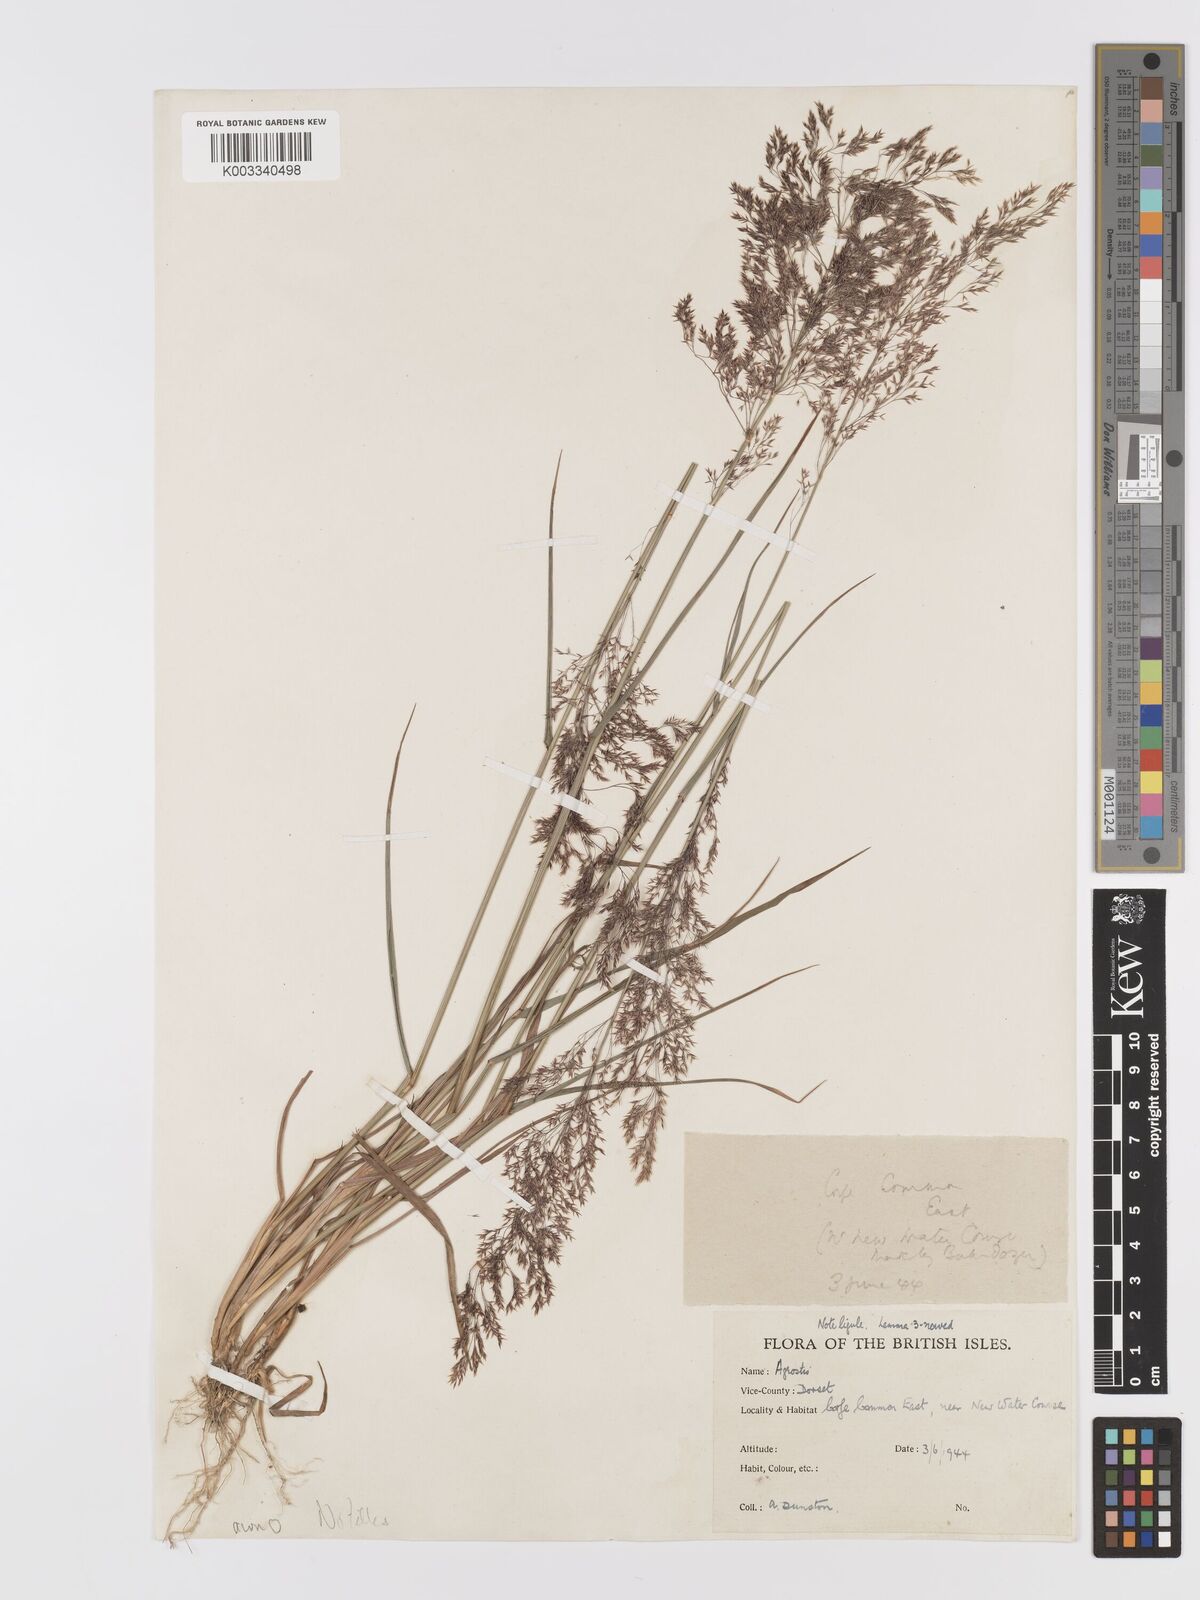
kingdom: Plantae
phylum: Tracheophyta
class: Liliopsida
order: Poales
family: Poaceae
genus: Agrostis
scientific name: Agrostis capillaris
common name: Colonial bentgrass
